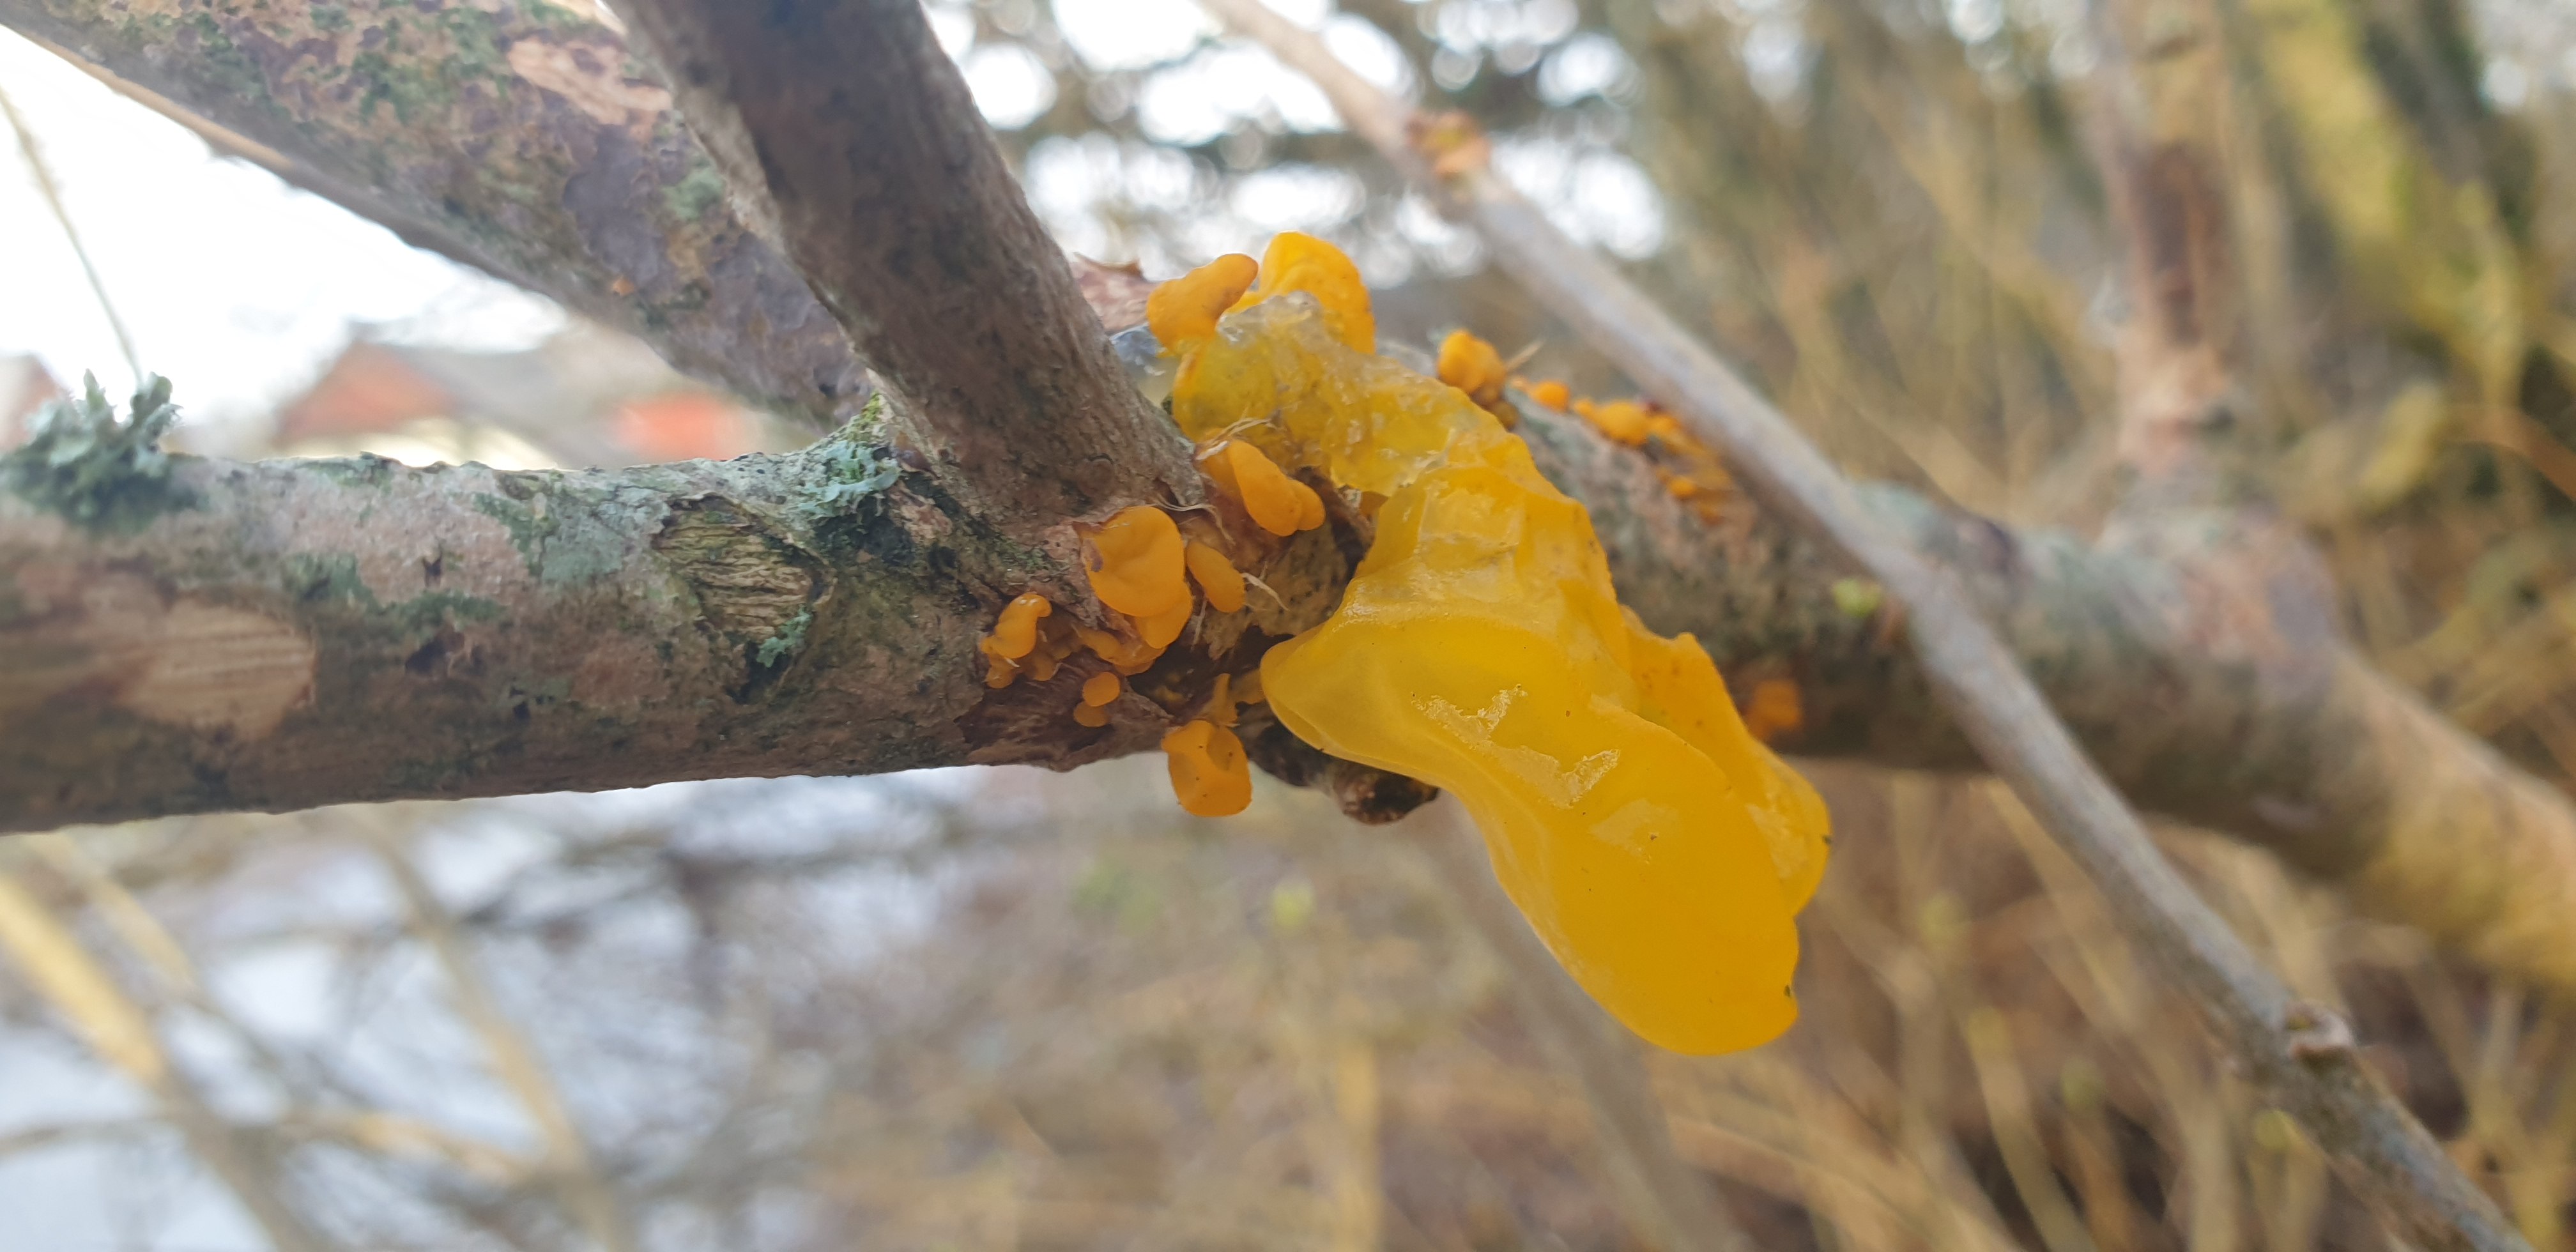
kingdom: Fungi
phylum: Basidiomycota
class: Tremellomycetes
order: Tremellales
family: Tremellaceae
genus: Tremella
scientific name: Tremella mesenterica
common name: gul bævresvamp
